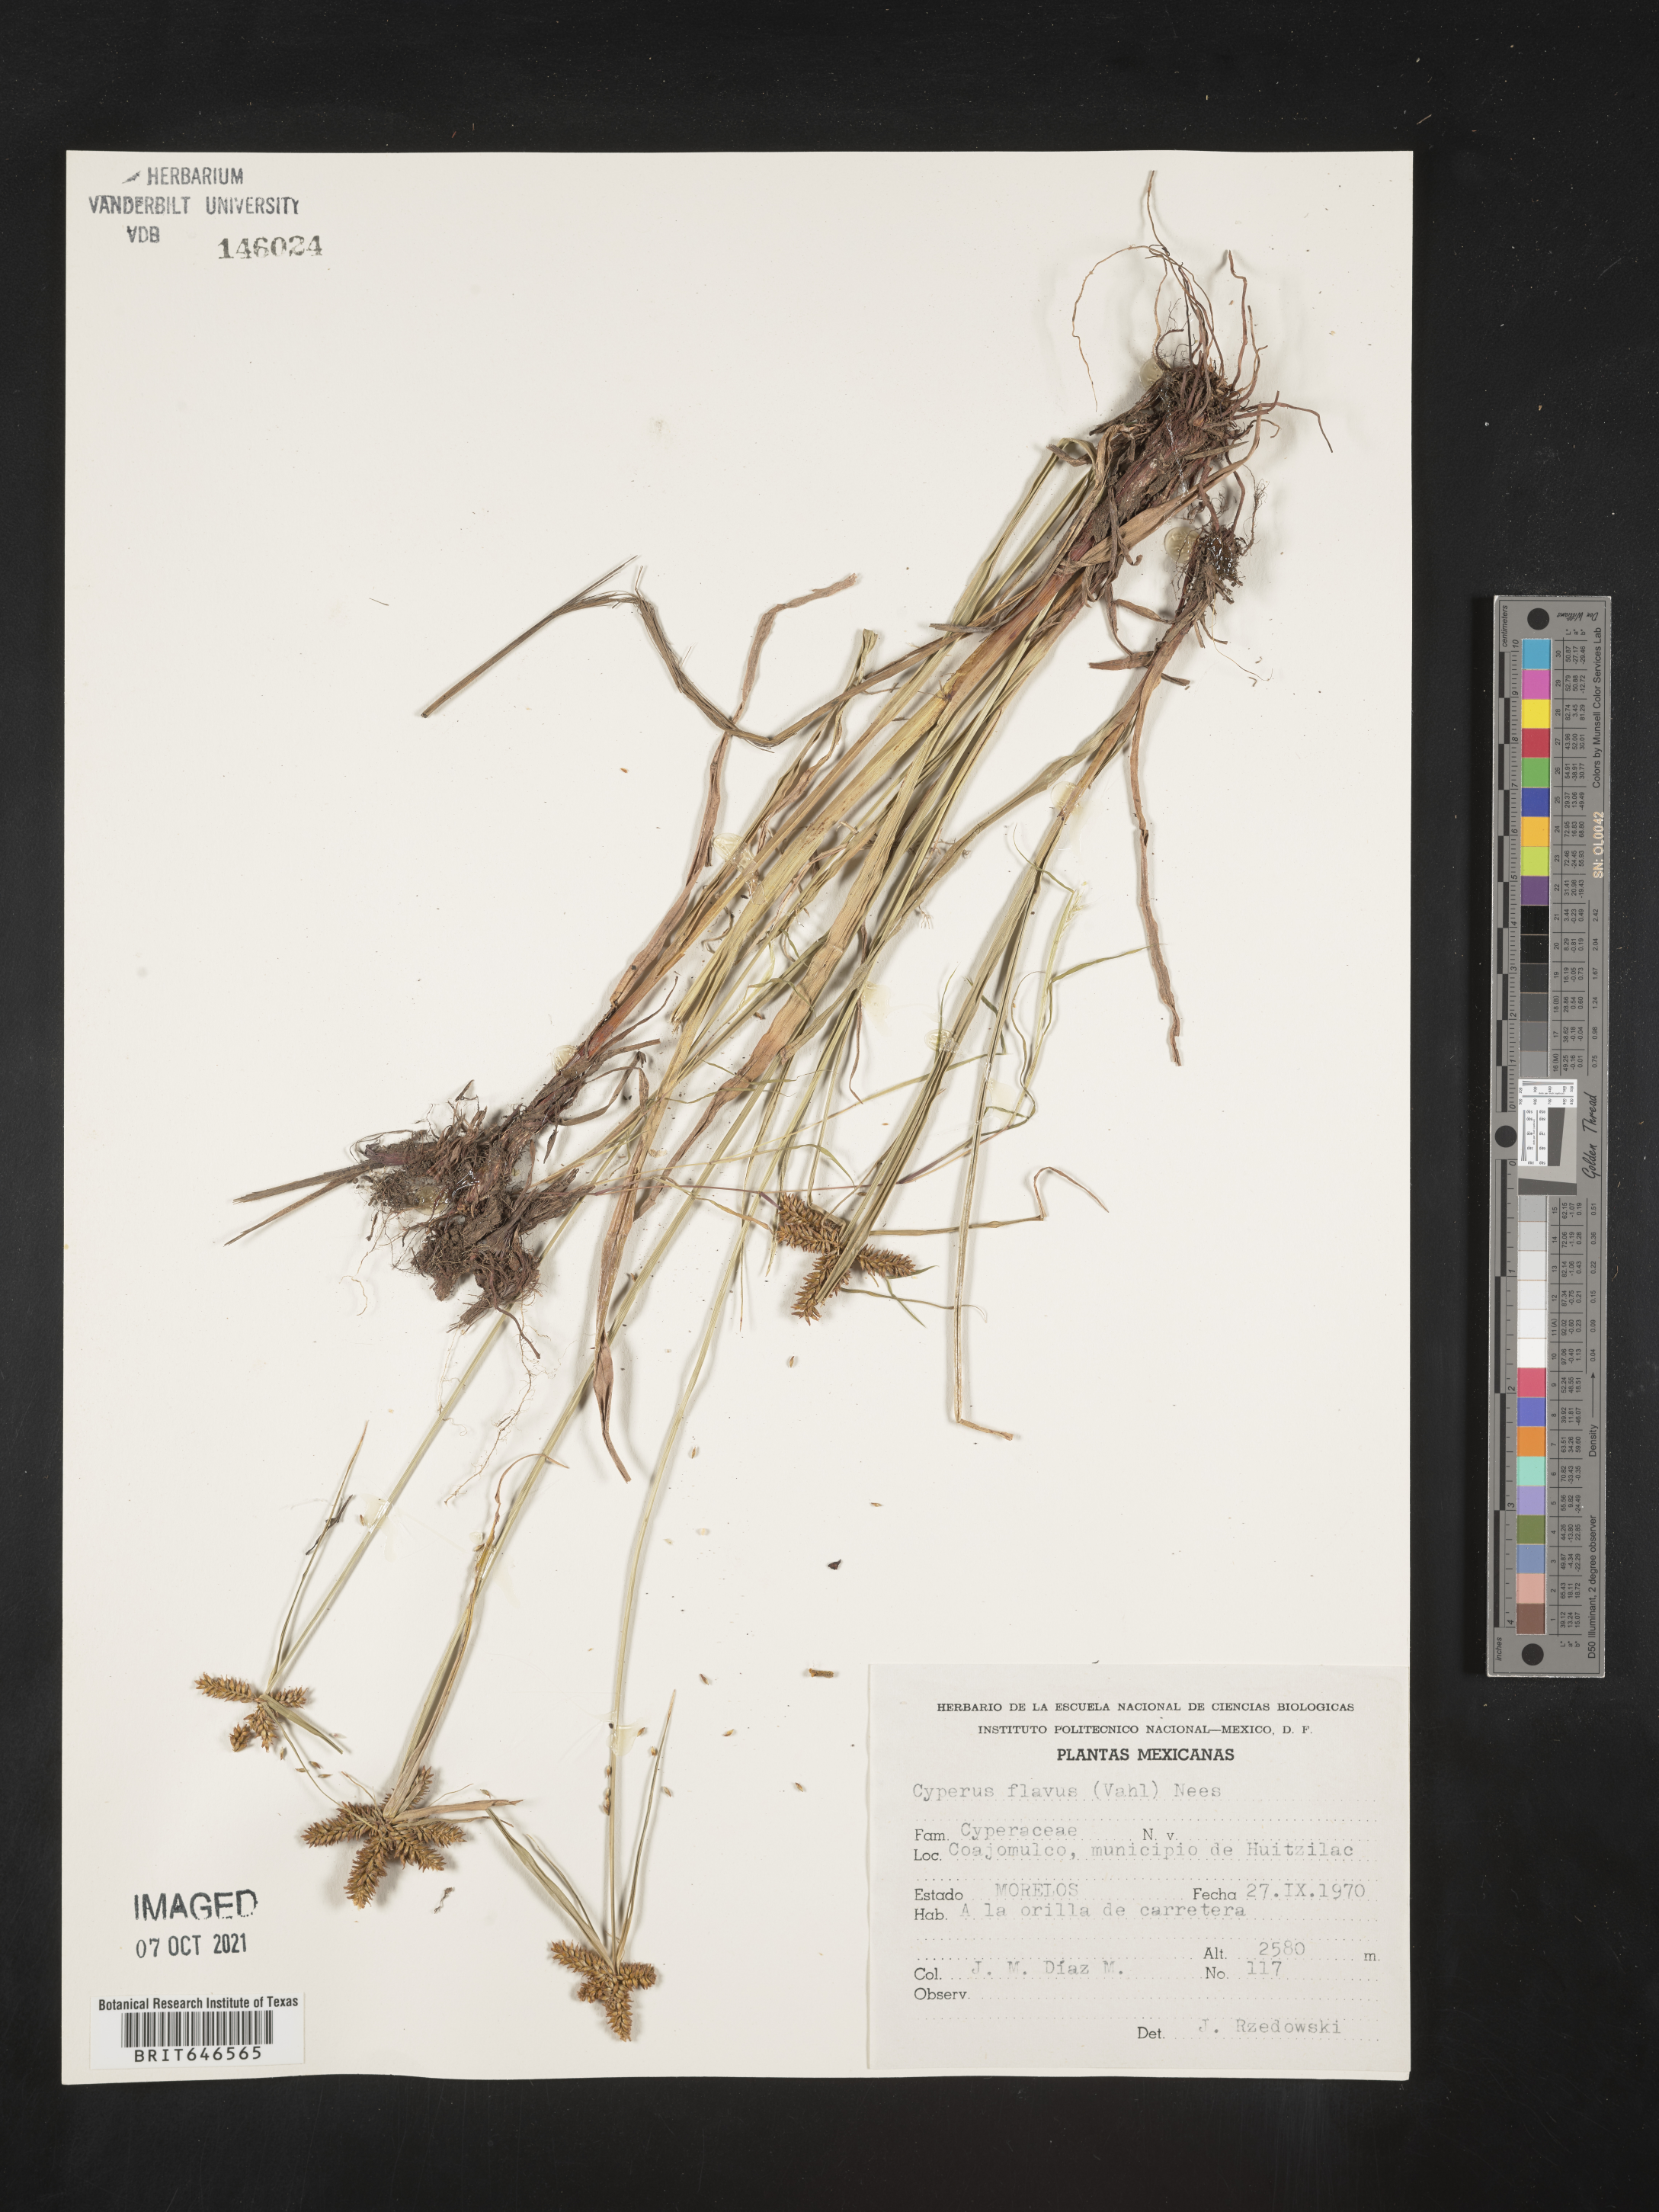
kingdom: Plantae
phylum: Tracheophyta
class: Liliopsida
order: Poales
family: Cyperaceae
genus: Cyperus
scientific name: Cyperus
